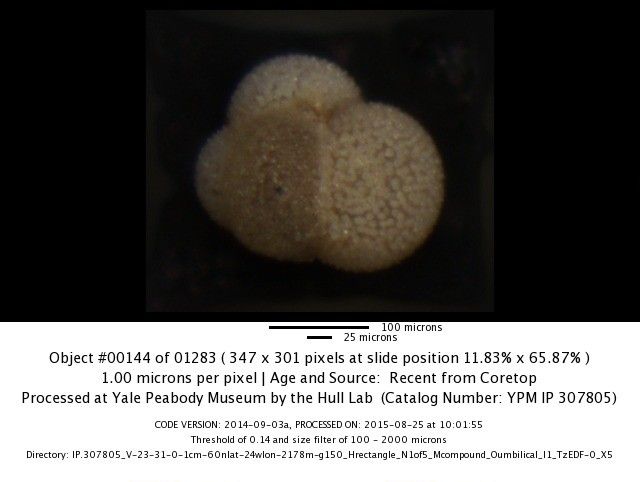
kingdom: Chromista
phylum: Foraminifera
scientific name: Foraminifera
